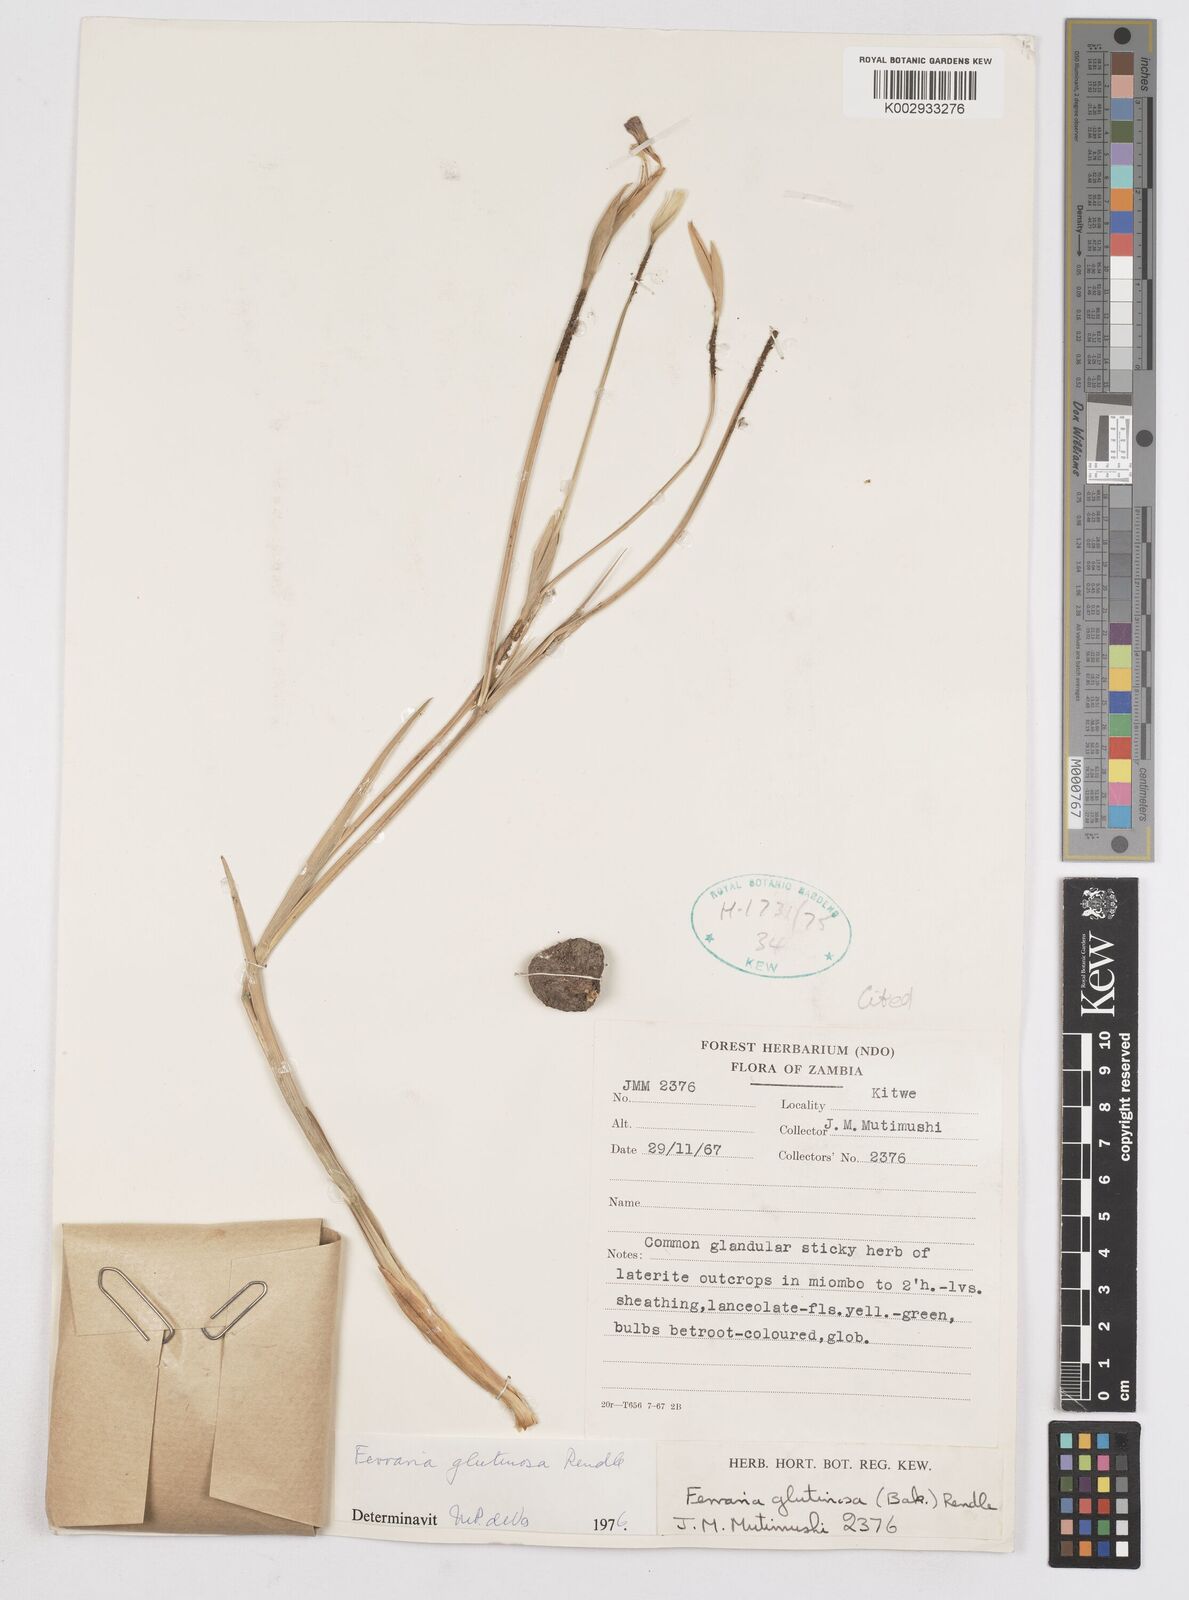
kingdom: Plantae
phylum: Tracheophyta
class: Liliopsida
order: Asparagales
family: Iridaceae
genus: Ferraria
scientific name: Ferraria
